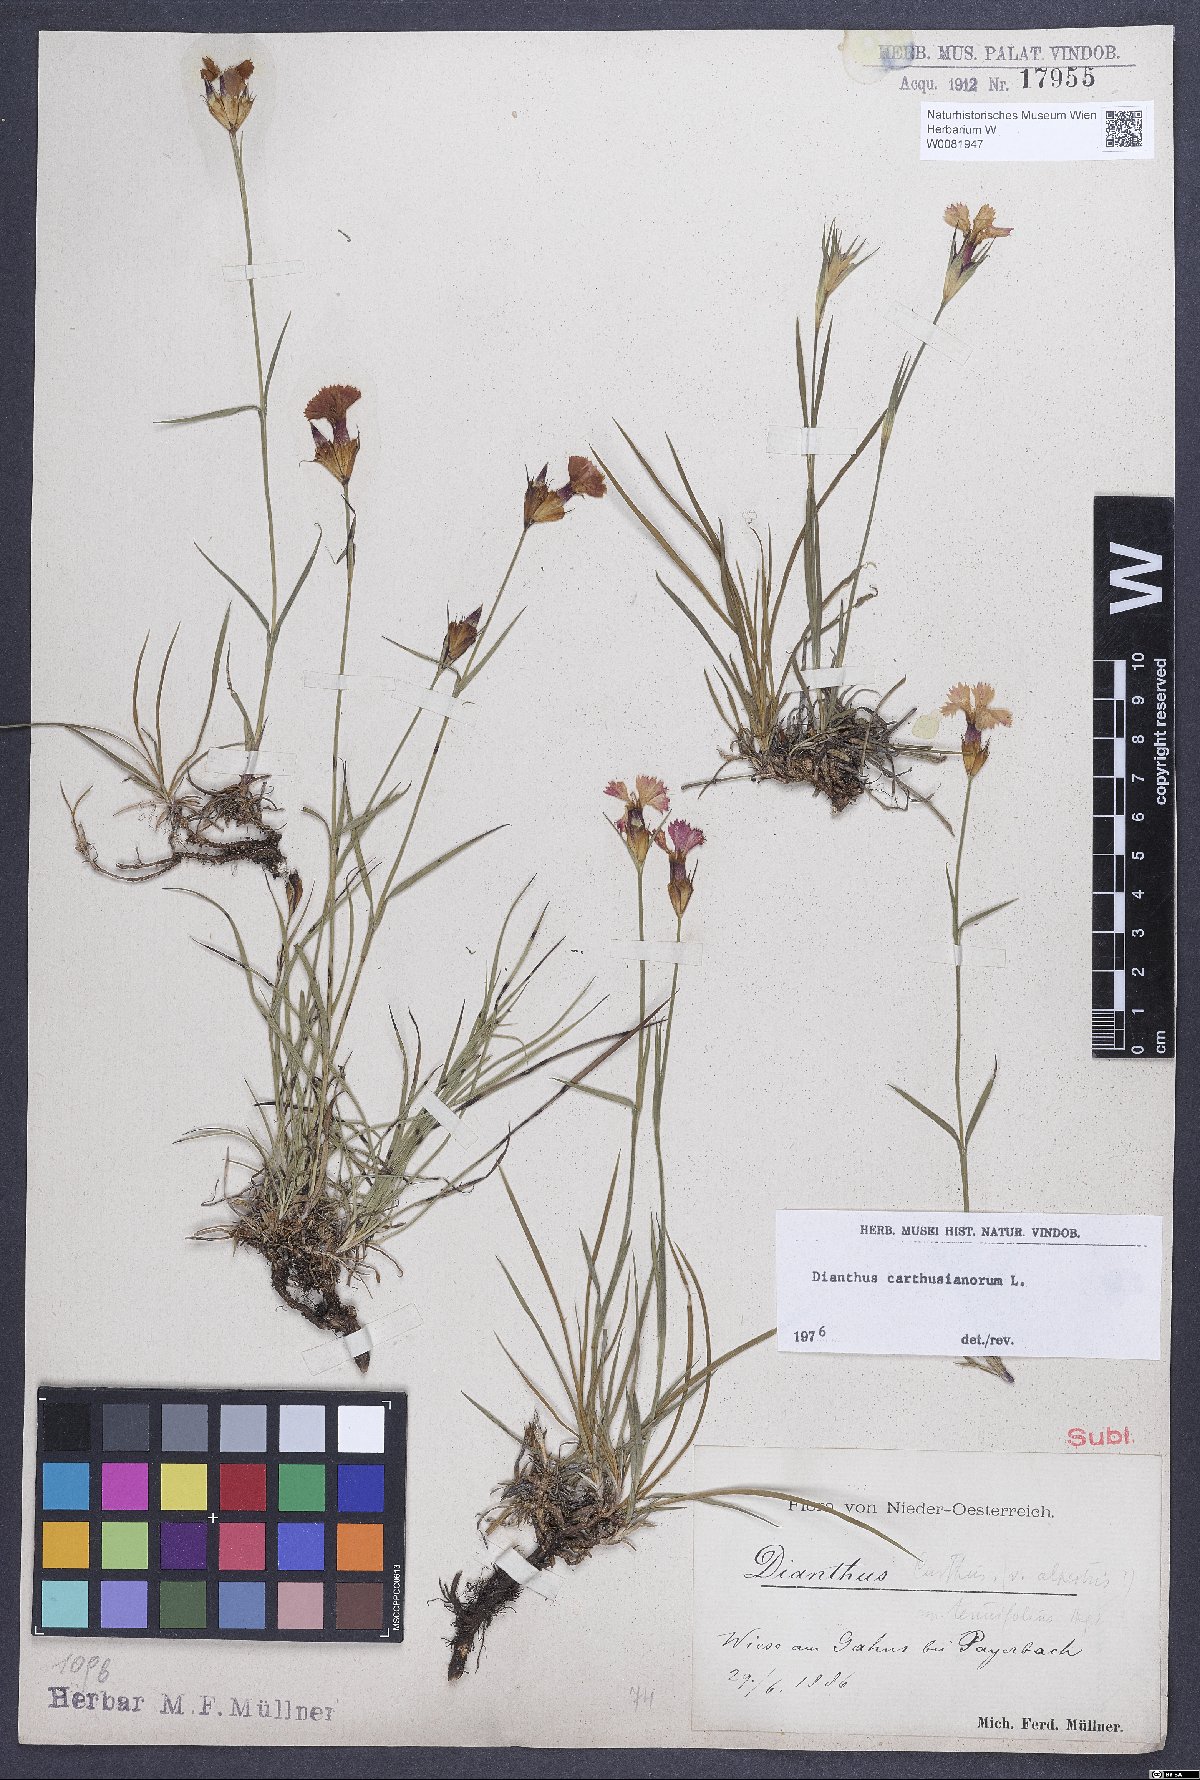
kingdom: Plantae
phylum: Tracheophyta
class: Magnoliopsida
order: Caryophyllales
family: Caryophyllaceae
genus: Dianthus
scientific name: Dianthus carthusianorum
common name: Carthusian pink
